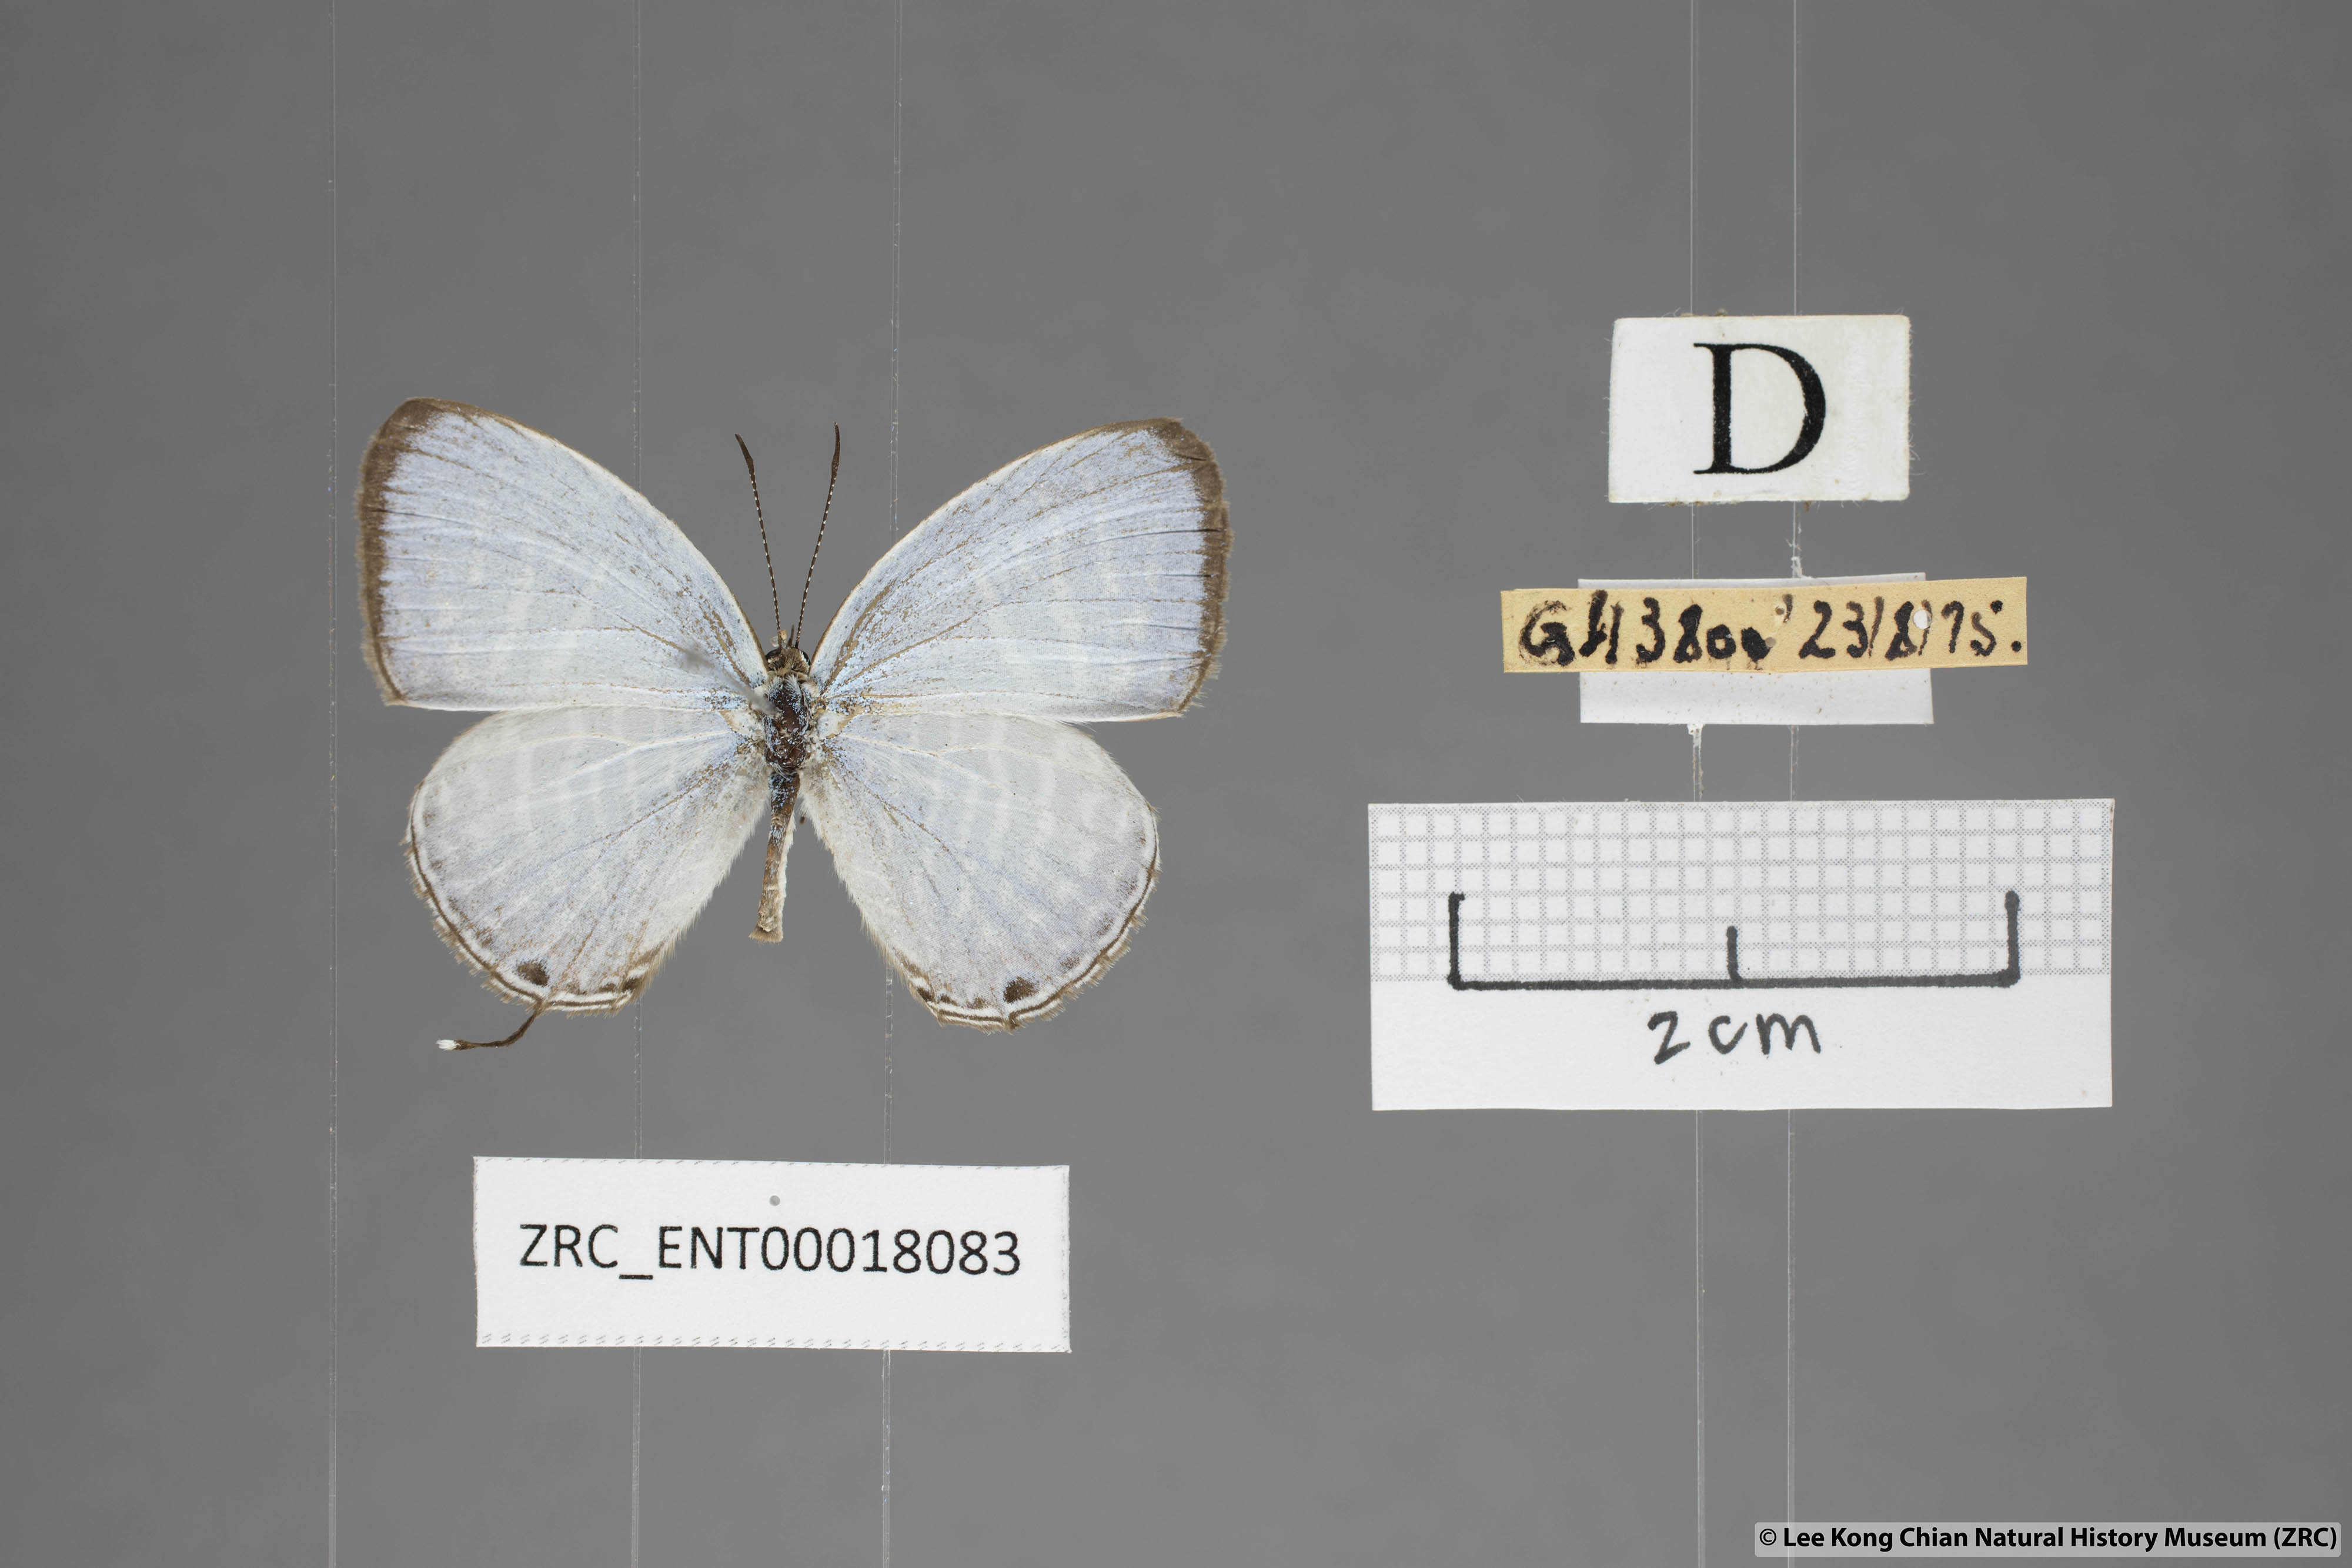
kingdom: Animalia
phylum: Arthropoda
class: Insecta
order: Lepidoptera
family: Lycaenidae
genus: Jamides
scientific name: Jamides celeno
